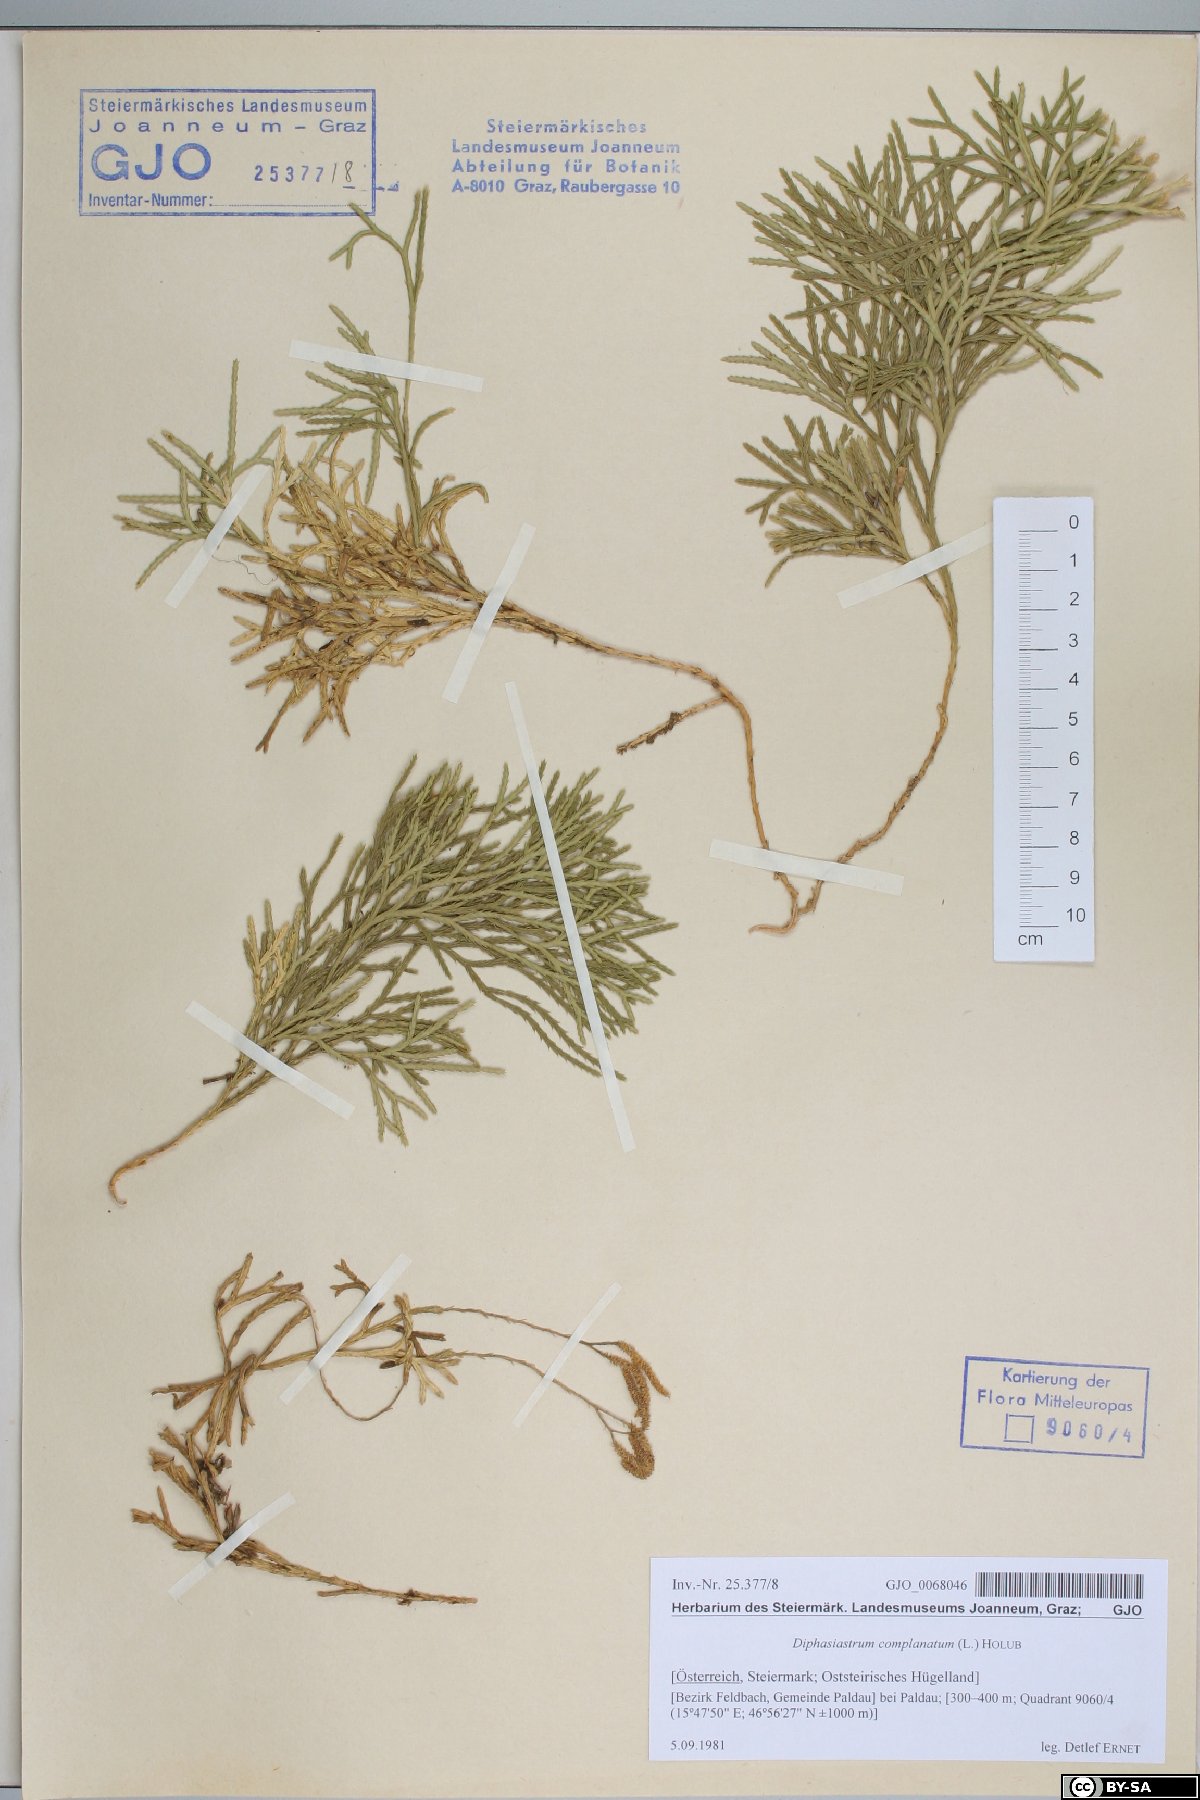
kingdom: Plantae
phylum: Tracheophyta
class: Lycopodiopsida
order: Lycopodiales
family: Lycopodiaceae
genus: Diphasiastrum
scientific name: Diphasiastrum complanatum
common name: Northern running-pine
